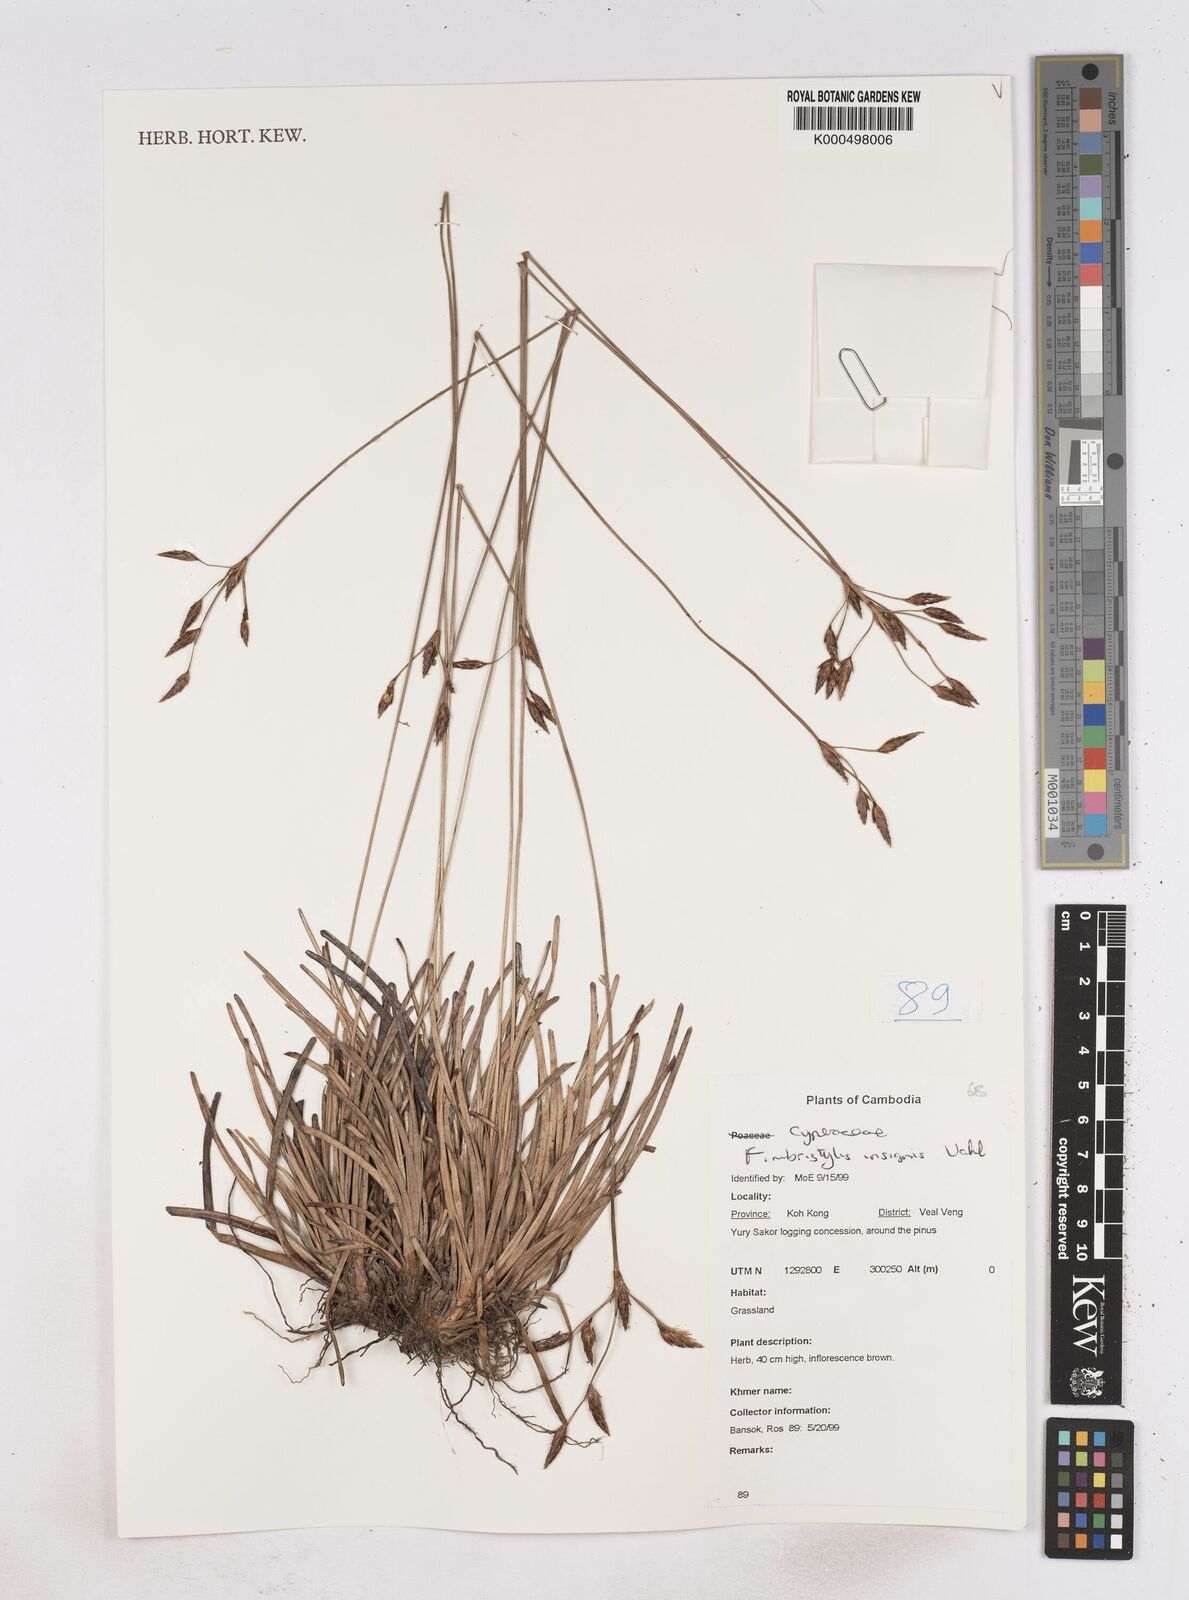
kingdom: Plantae
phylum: Tracheophyta
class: Liliopsida
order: Poales
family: Cyperaceae
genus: Fimbristylis
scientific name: Fimbristylis insignis
